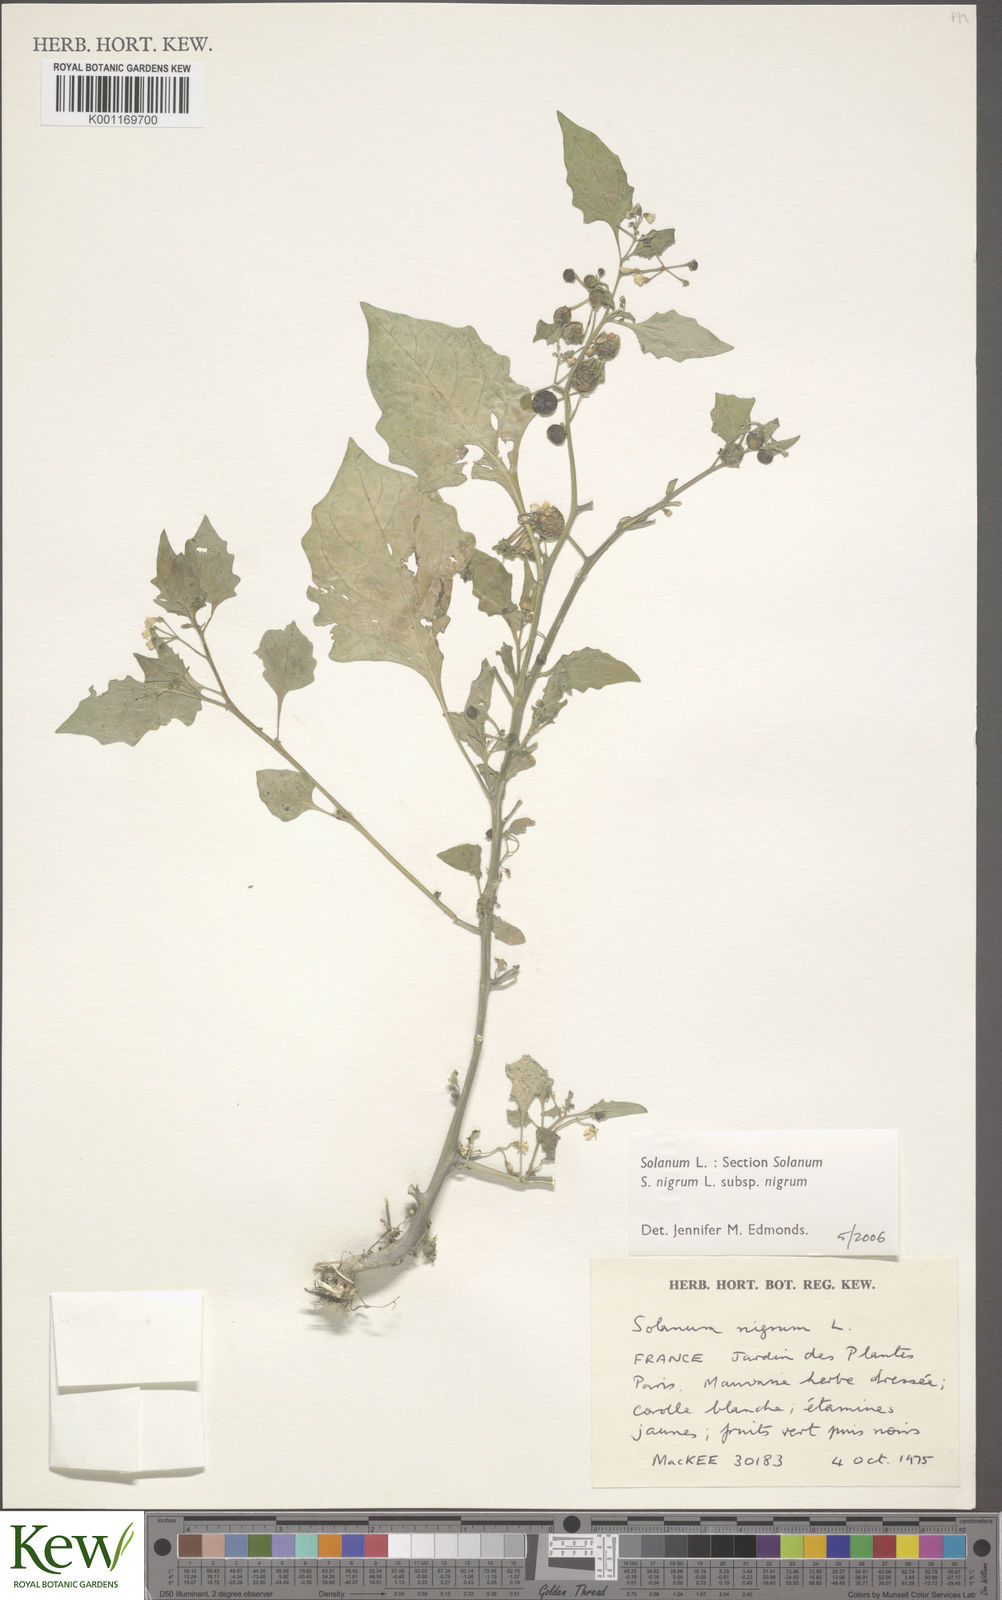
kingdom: Plantae
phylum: Tracheophyta
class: Magnoliopsida
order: Solanales
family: Solanaceae
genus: Solanum
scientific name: Solanum nigrum
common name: Black nightshade
